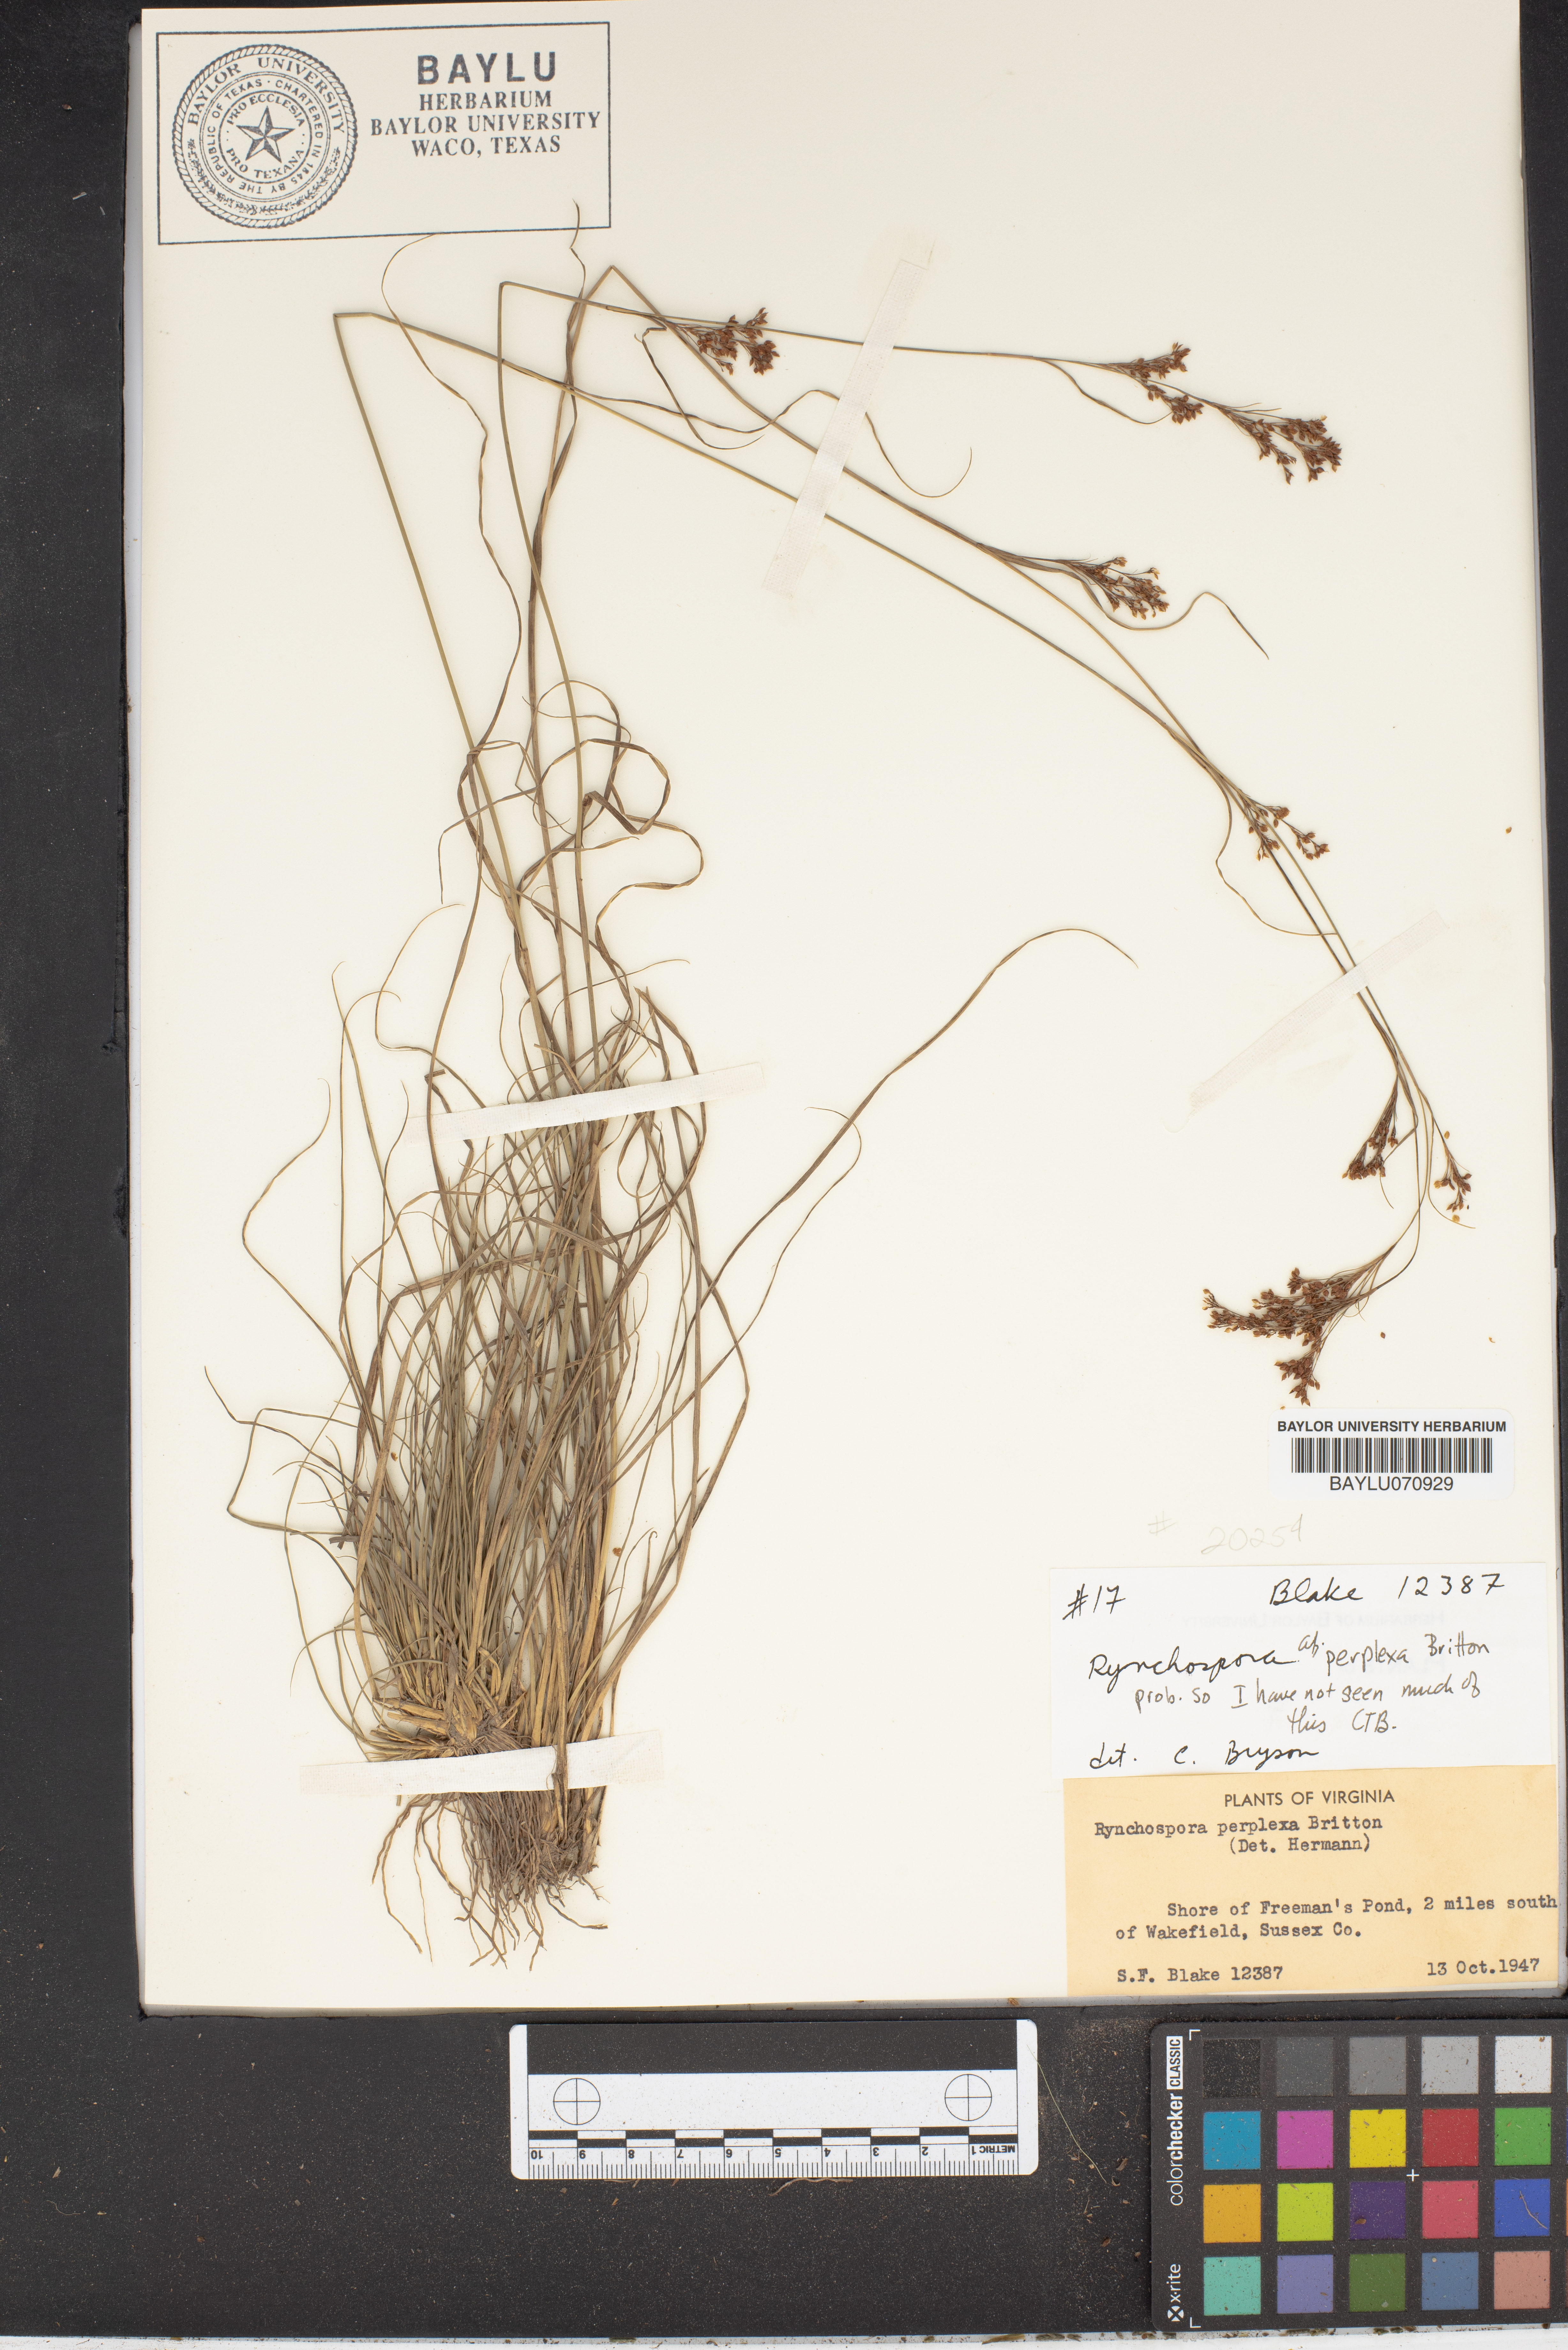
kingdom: Plantae
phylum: Tracheophyta
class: Liliopsida
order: Poales
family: Cyperaceae
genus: Rhynchospora
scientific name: Rhynchospora perplexa
